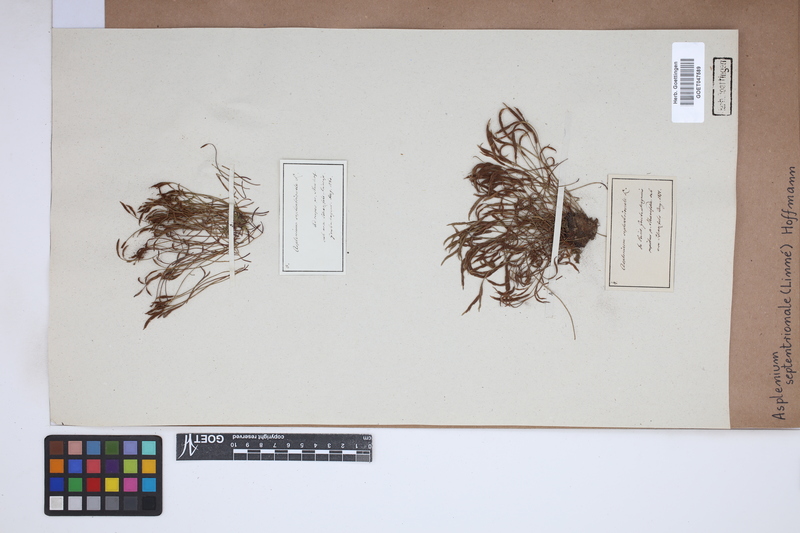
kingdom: Plantae
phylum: Tracheophyta
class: Polypodiopsida
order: Polypodiales
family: Aspleniaceae
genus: Asplenium
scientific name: Asplenium septentrionale
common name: Forked spleenwort
